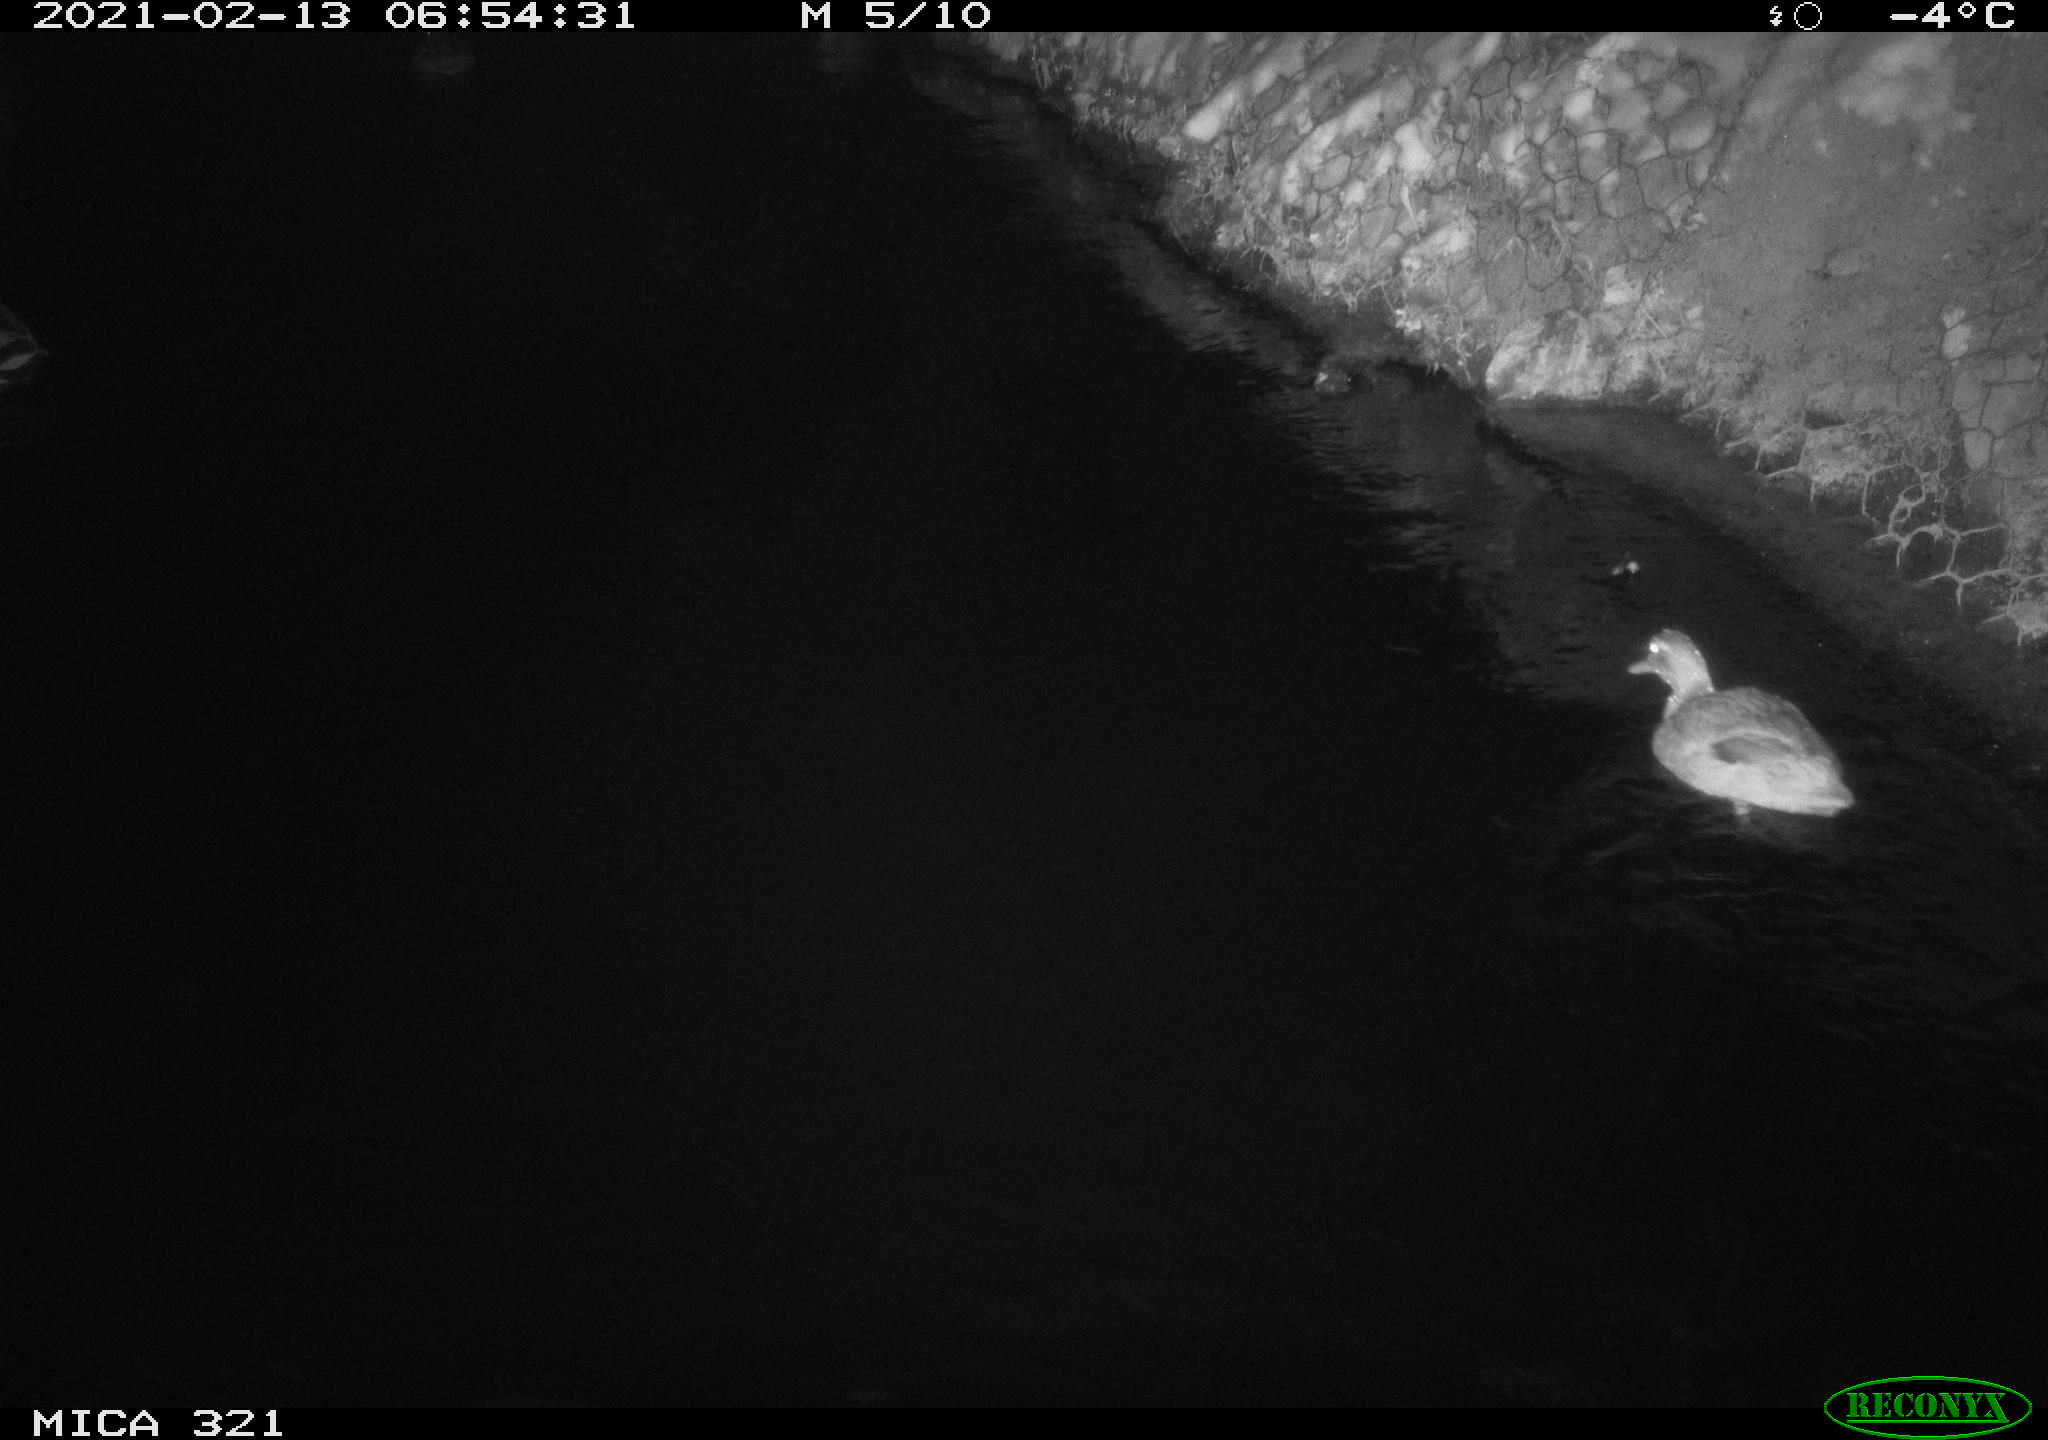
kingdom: Animalia
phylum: Chordata
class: Aves
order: Anseriformes
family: Anatidae
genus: Anas
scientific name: Anas platyrhynchos
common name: Mallard
